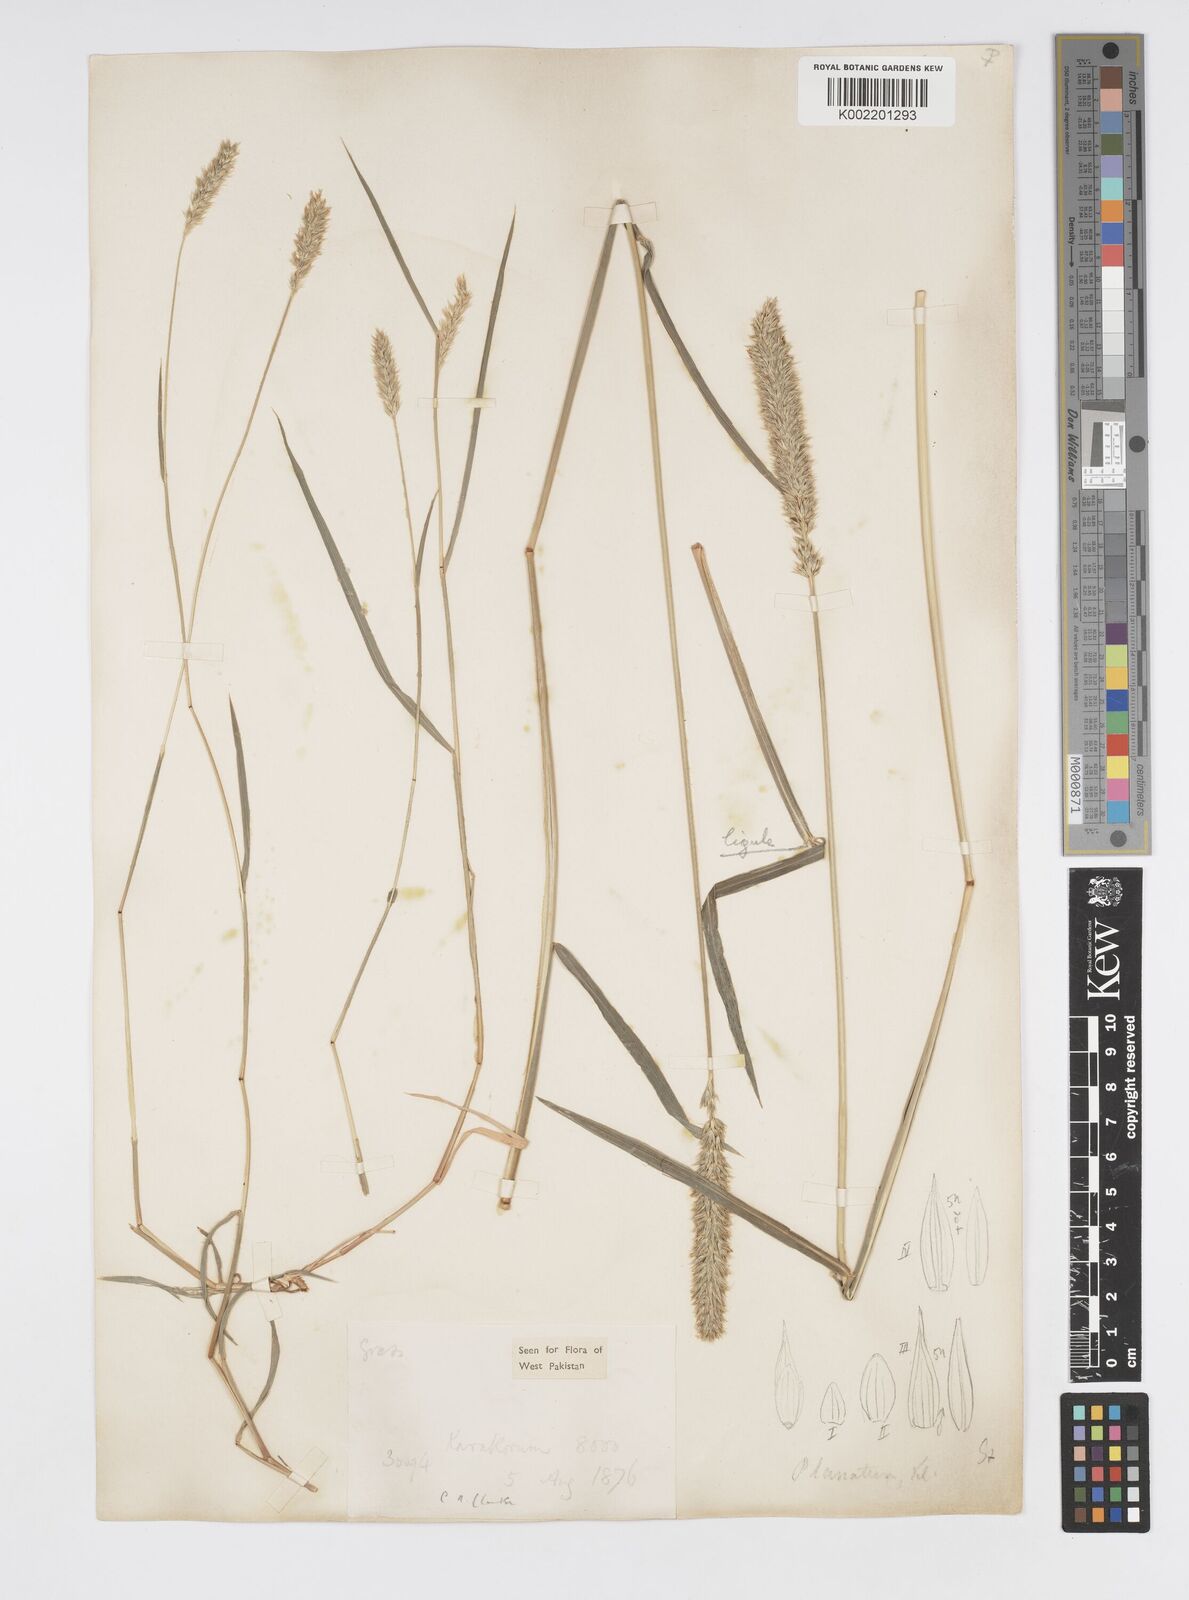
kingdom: Plantae
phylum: Tracheophyta
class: Liliopsida
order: Poales
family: Poaceae
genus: Cenchrus
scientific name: Cenchrus lanatus
